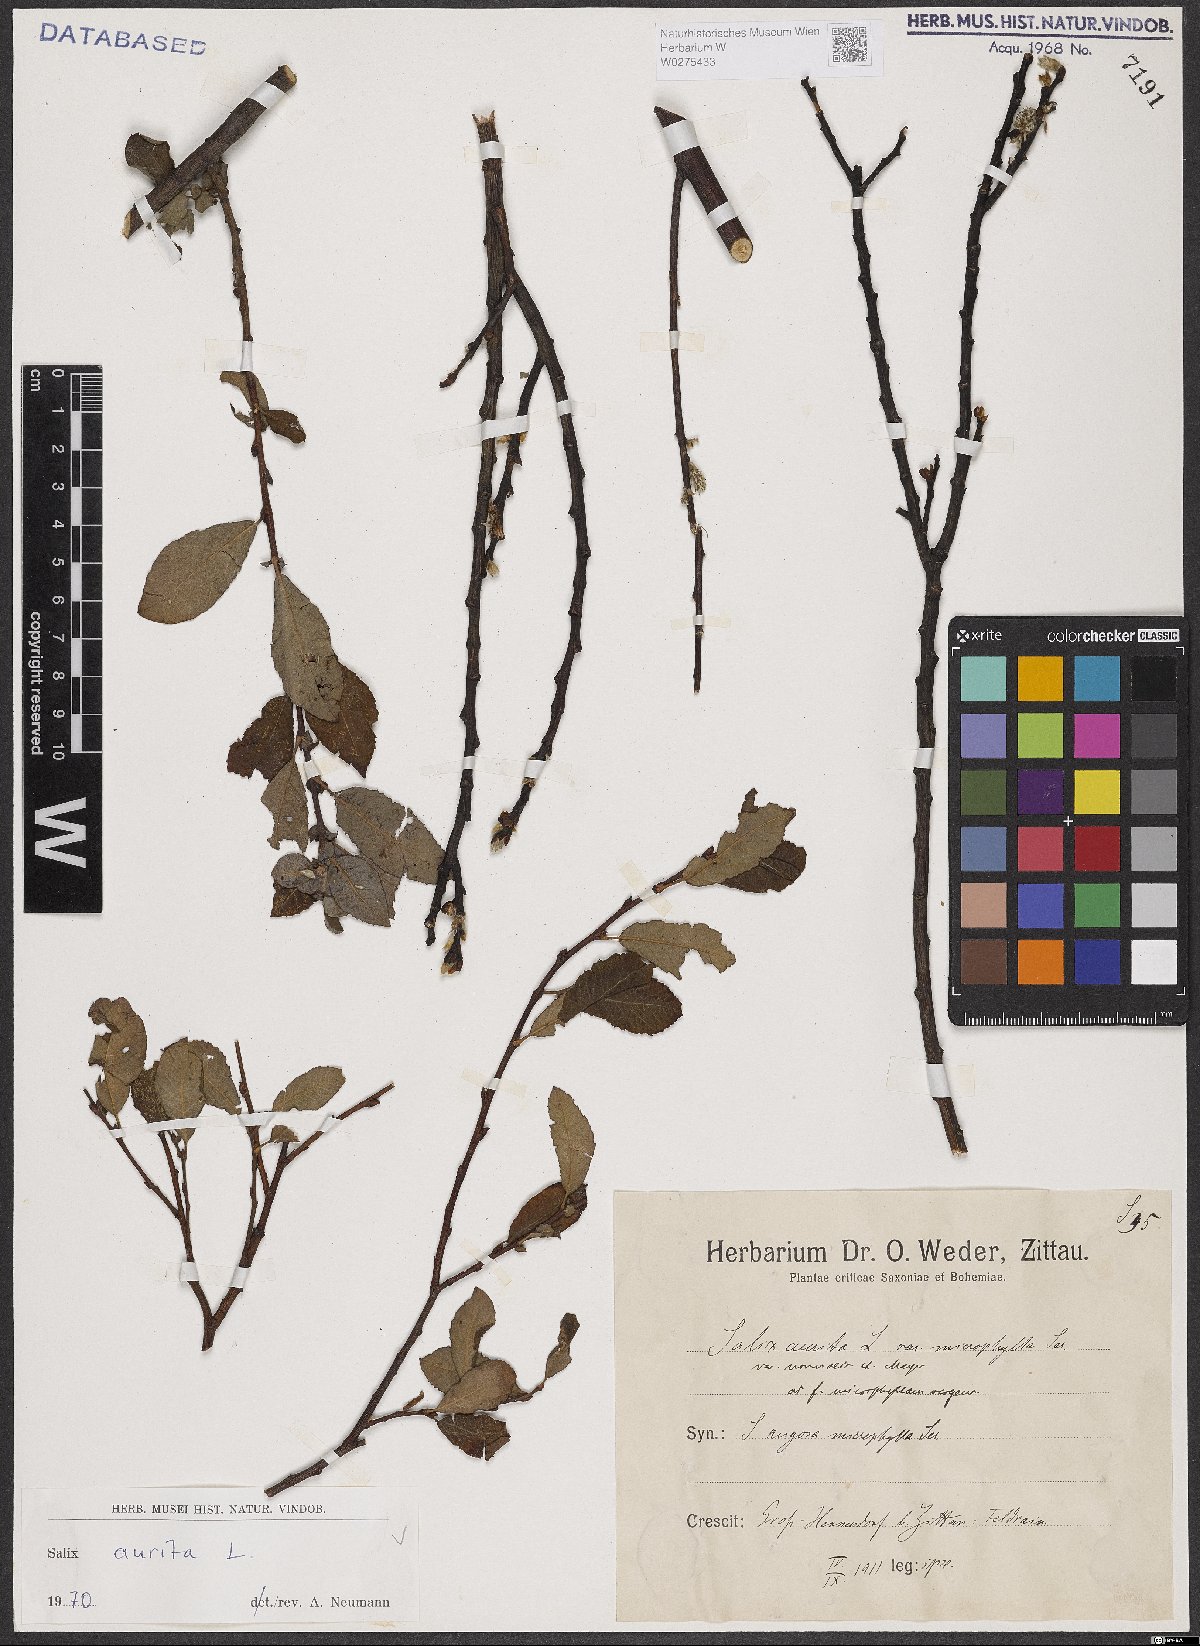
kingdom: Plantae
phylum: Tracheophyta
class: Magnoliopsida
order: Malpighiales
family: Salicaceae
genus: Salix
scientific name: Salix aurita
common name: Eared willow
